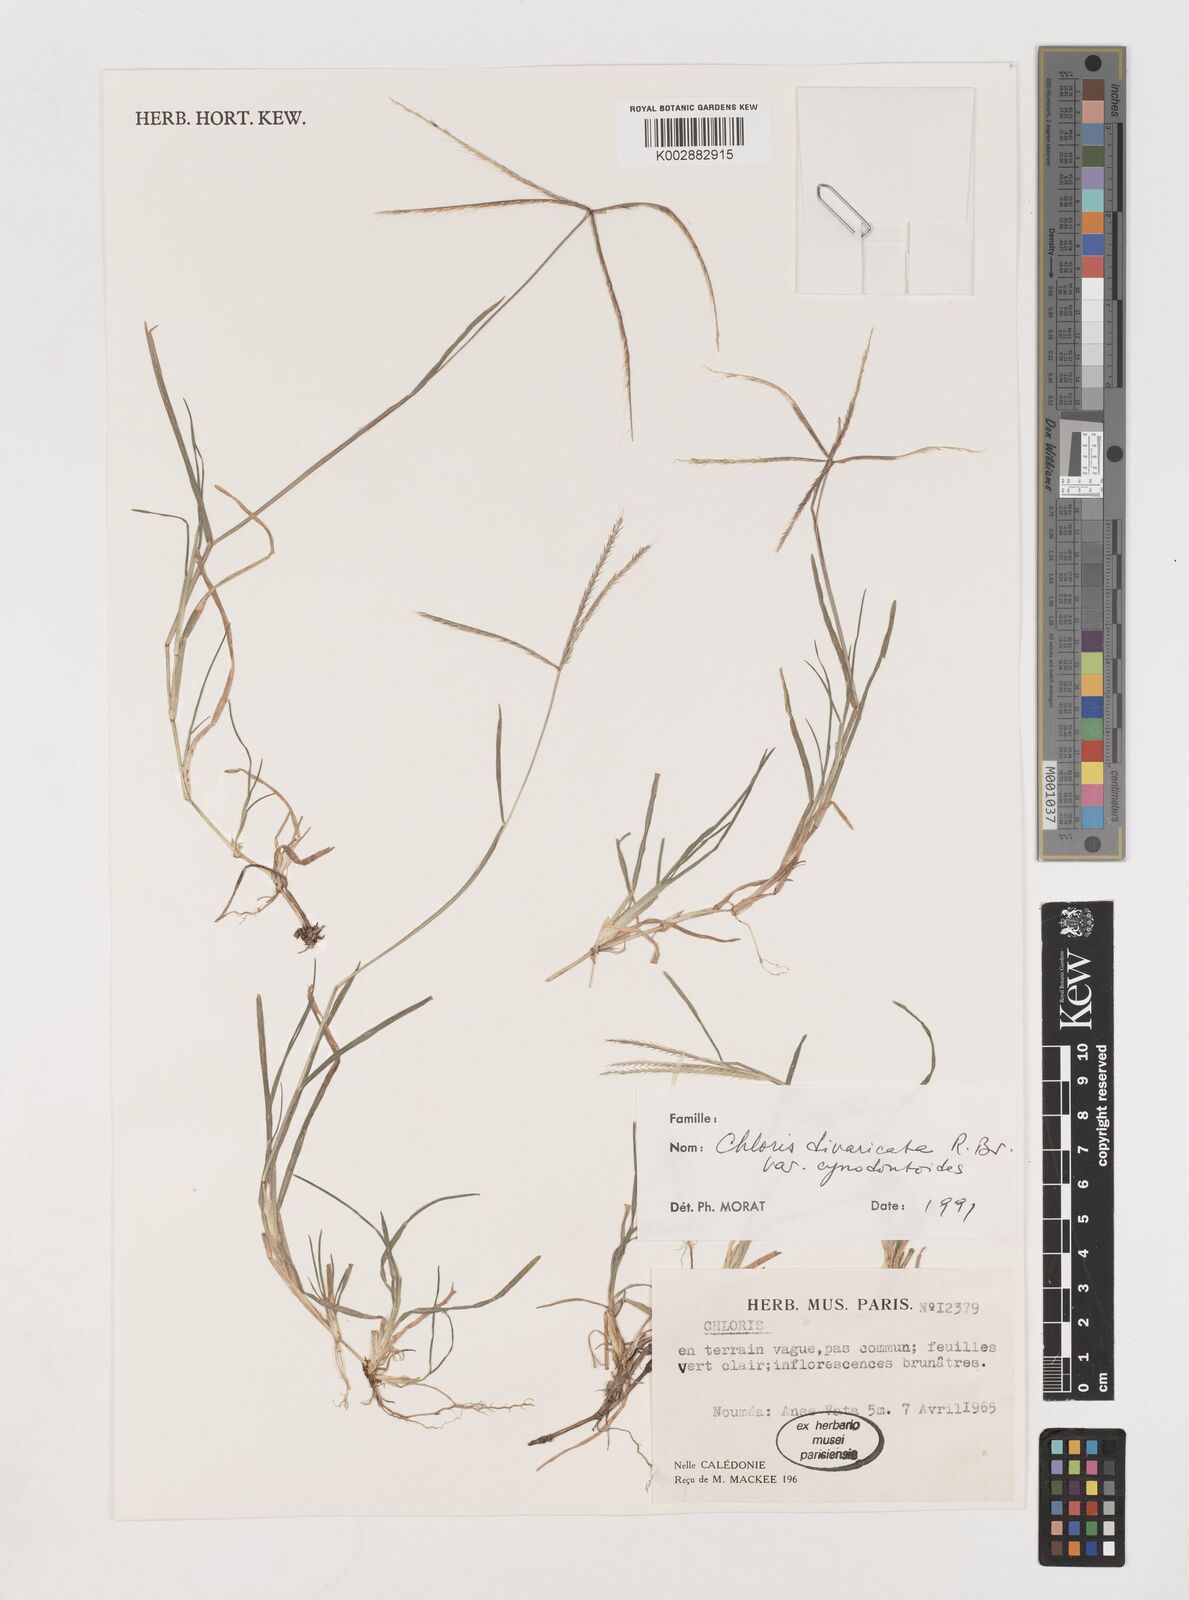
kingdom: Plantae
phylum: Tracheophyta
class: Liliopsida
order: Poales
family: Poaceae
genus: Chloris
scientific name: Chloris divaricata
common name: Spreading windmill grass
